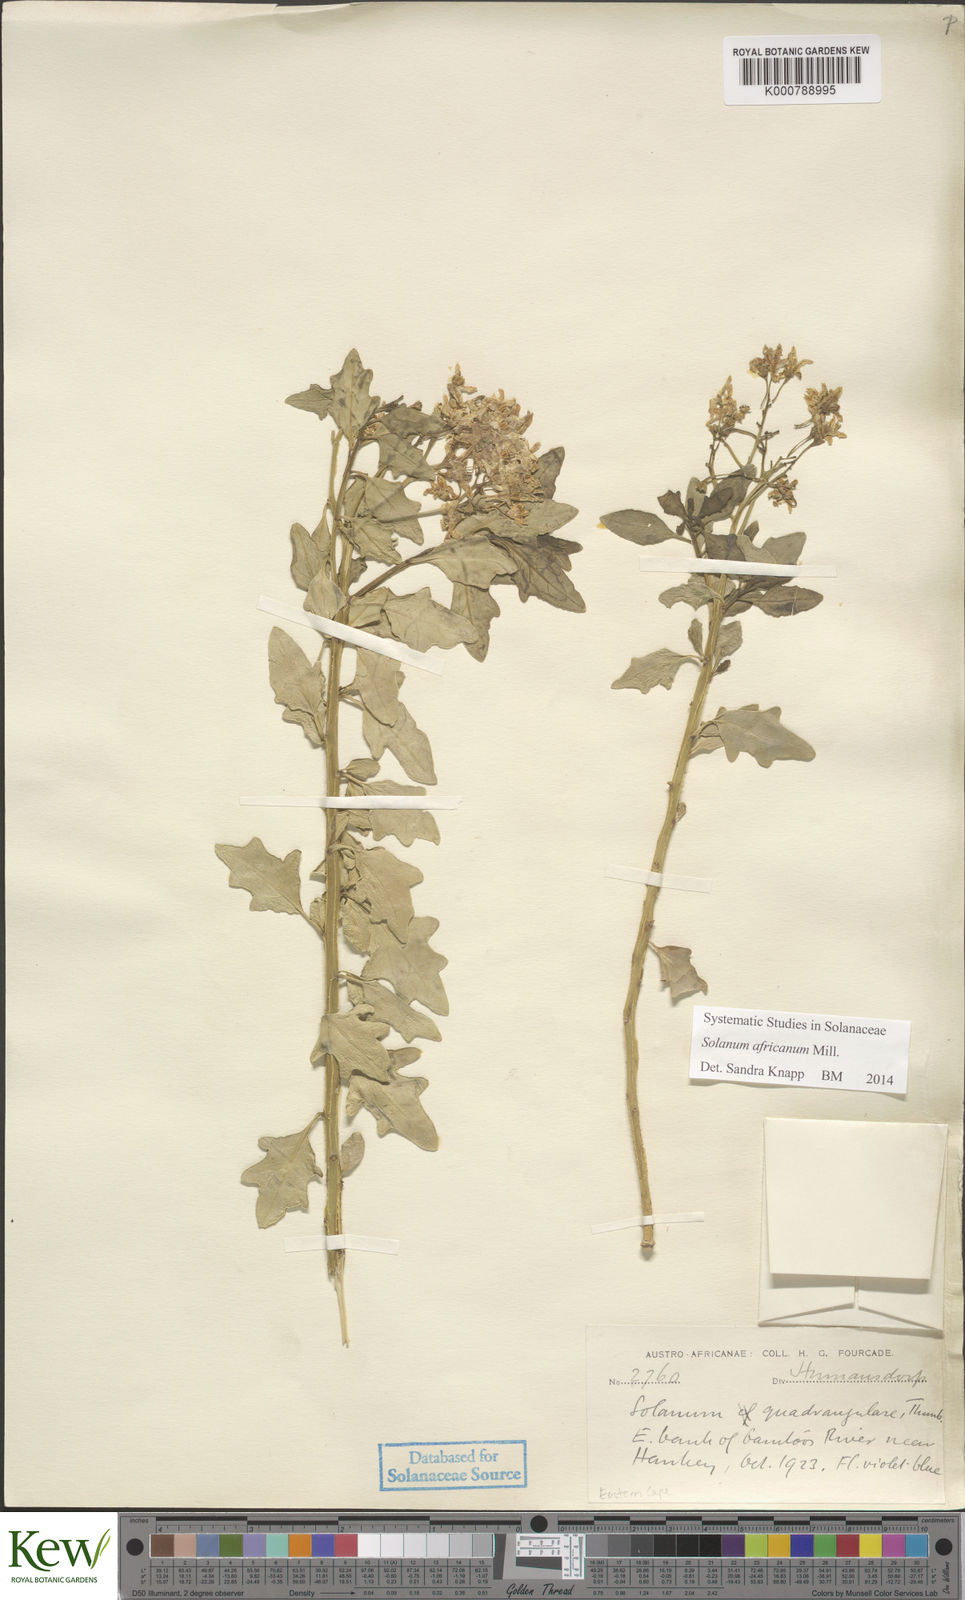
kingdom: Plantae
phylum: Tracheophyta
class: Magnoliopsida
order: Solanales
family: Solanaceae
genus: Solanum
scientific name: Solanum africanum
